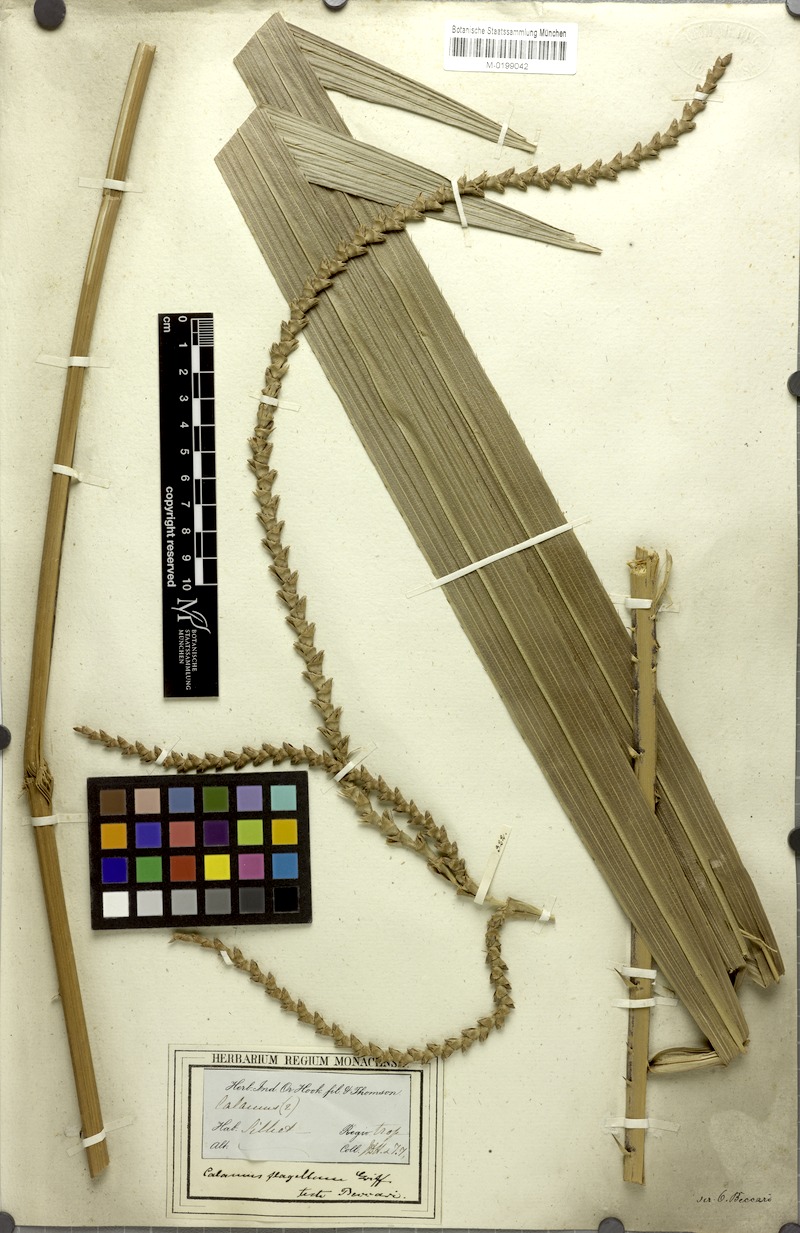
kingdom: Plantae
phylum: Tracheophyta
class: Liliopsida
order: Arecales
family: Arecaceae
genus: Calamus
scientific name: Calamus flagellum
